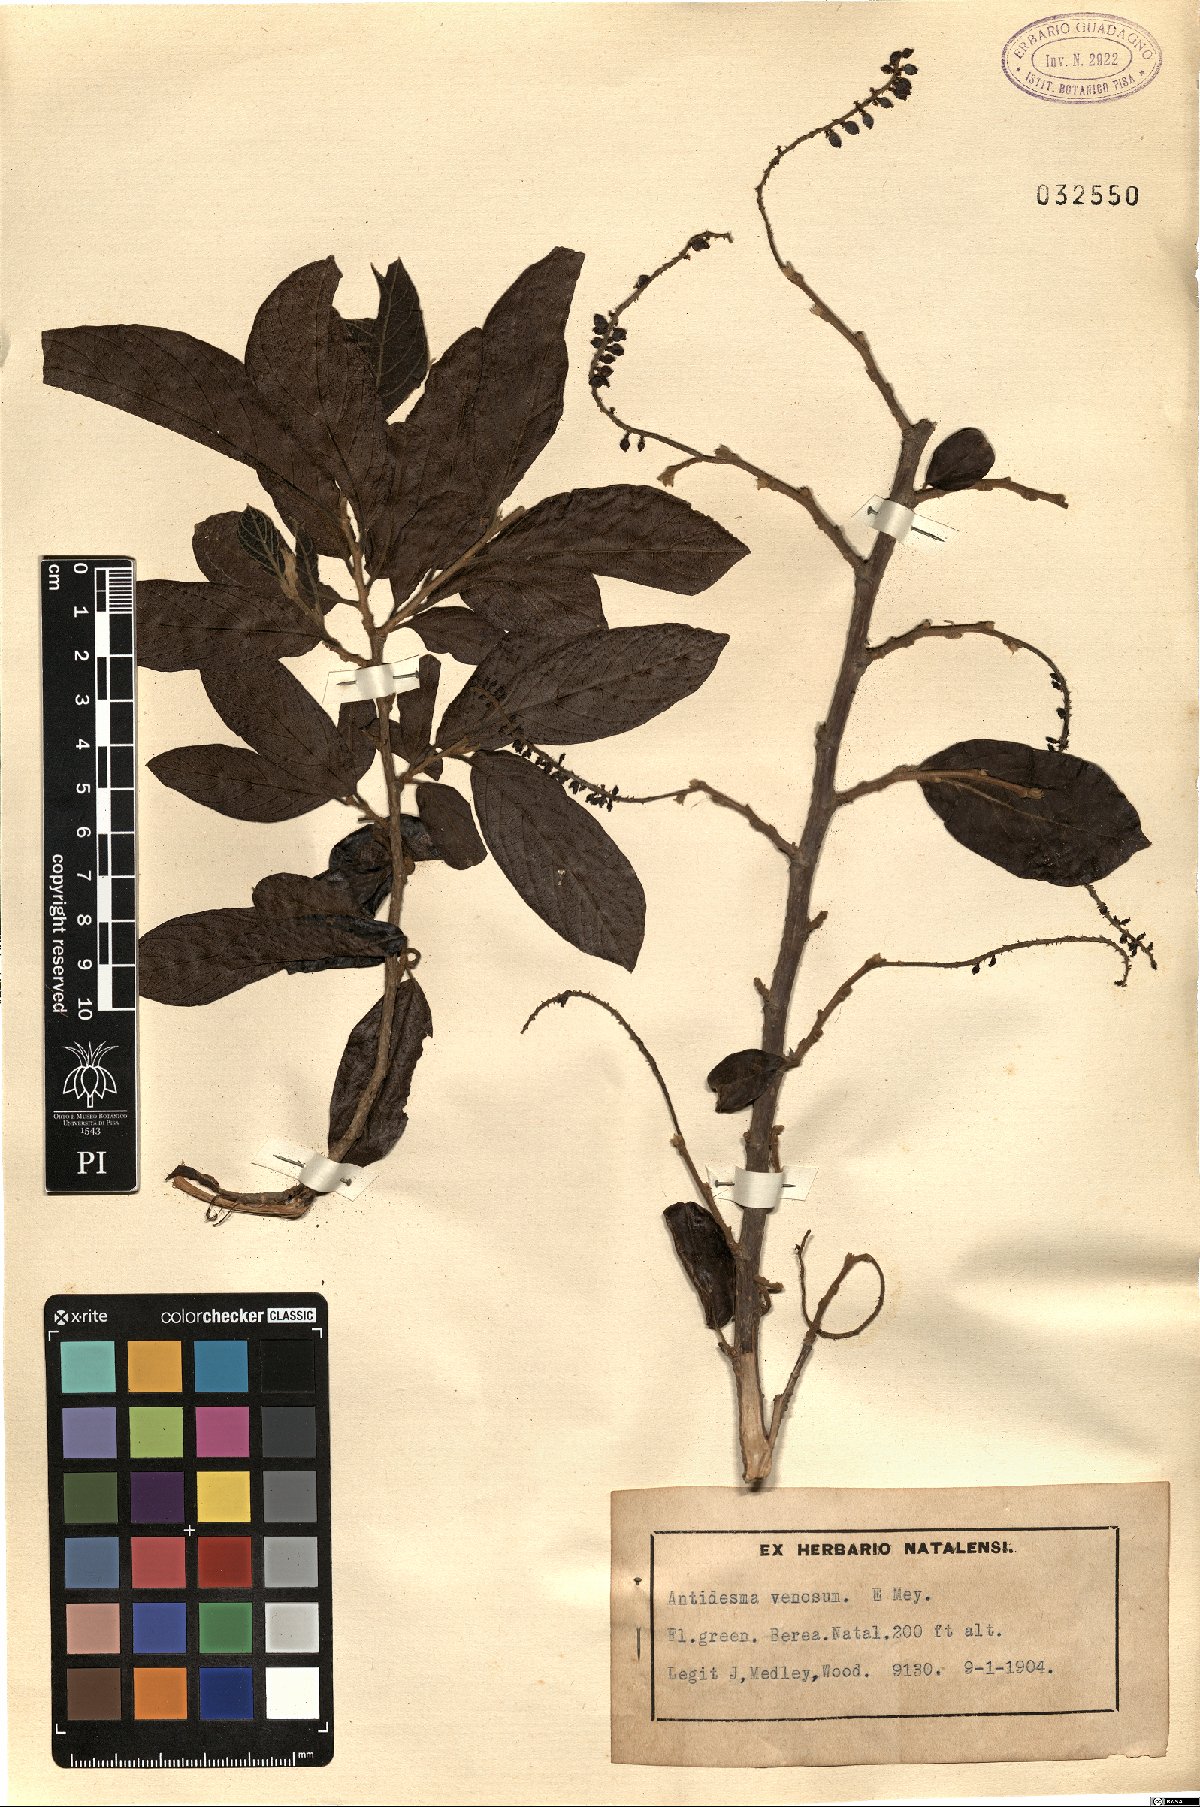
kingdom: Plantae
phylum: Tracheophyta
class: Magnoliopsida
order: Malpighiales
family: Phyllanthaceae
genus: Antidesma
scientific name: Antidesma venosum
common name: Tassel-berry
